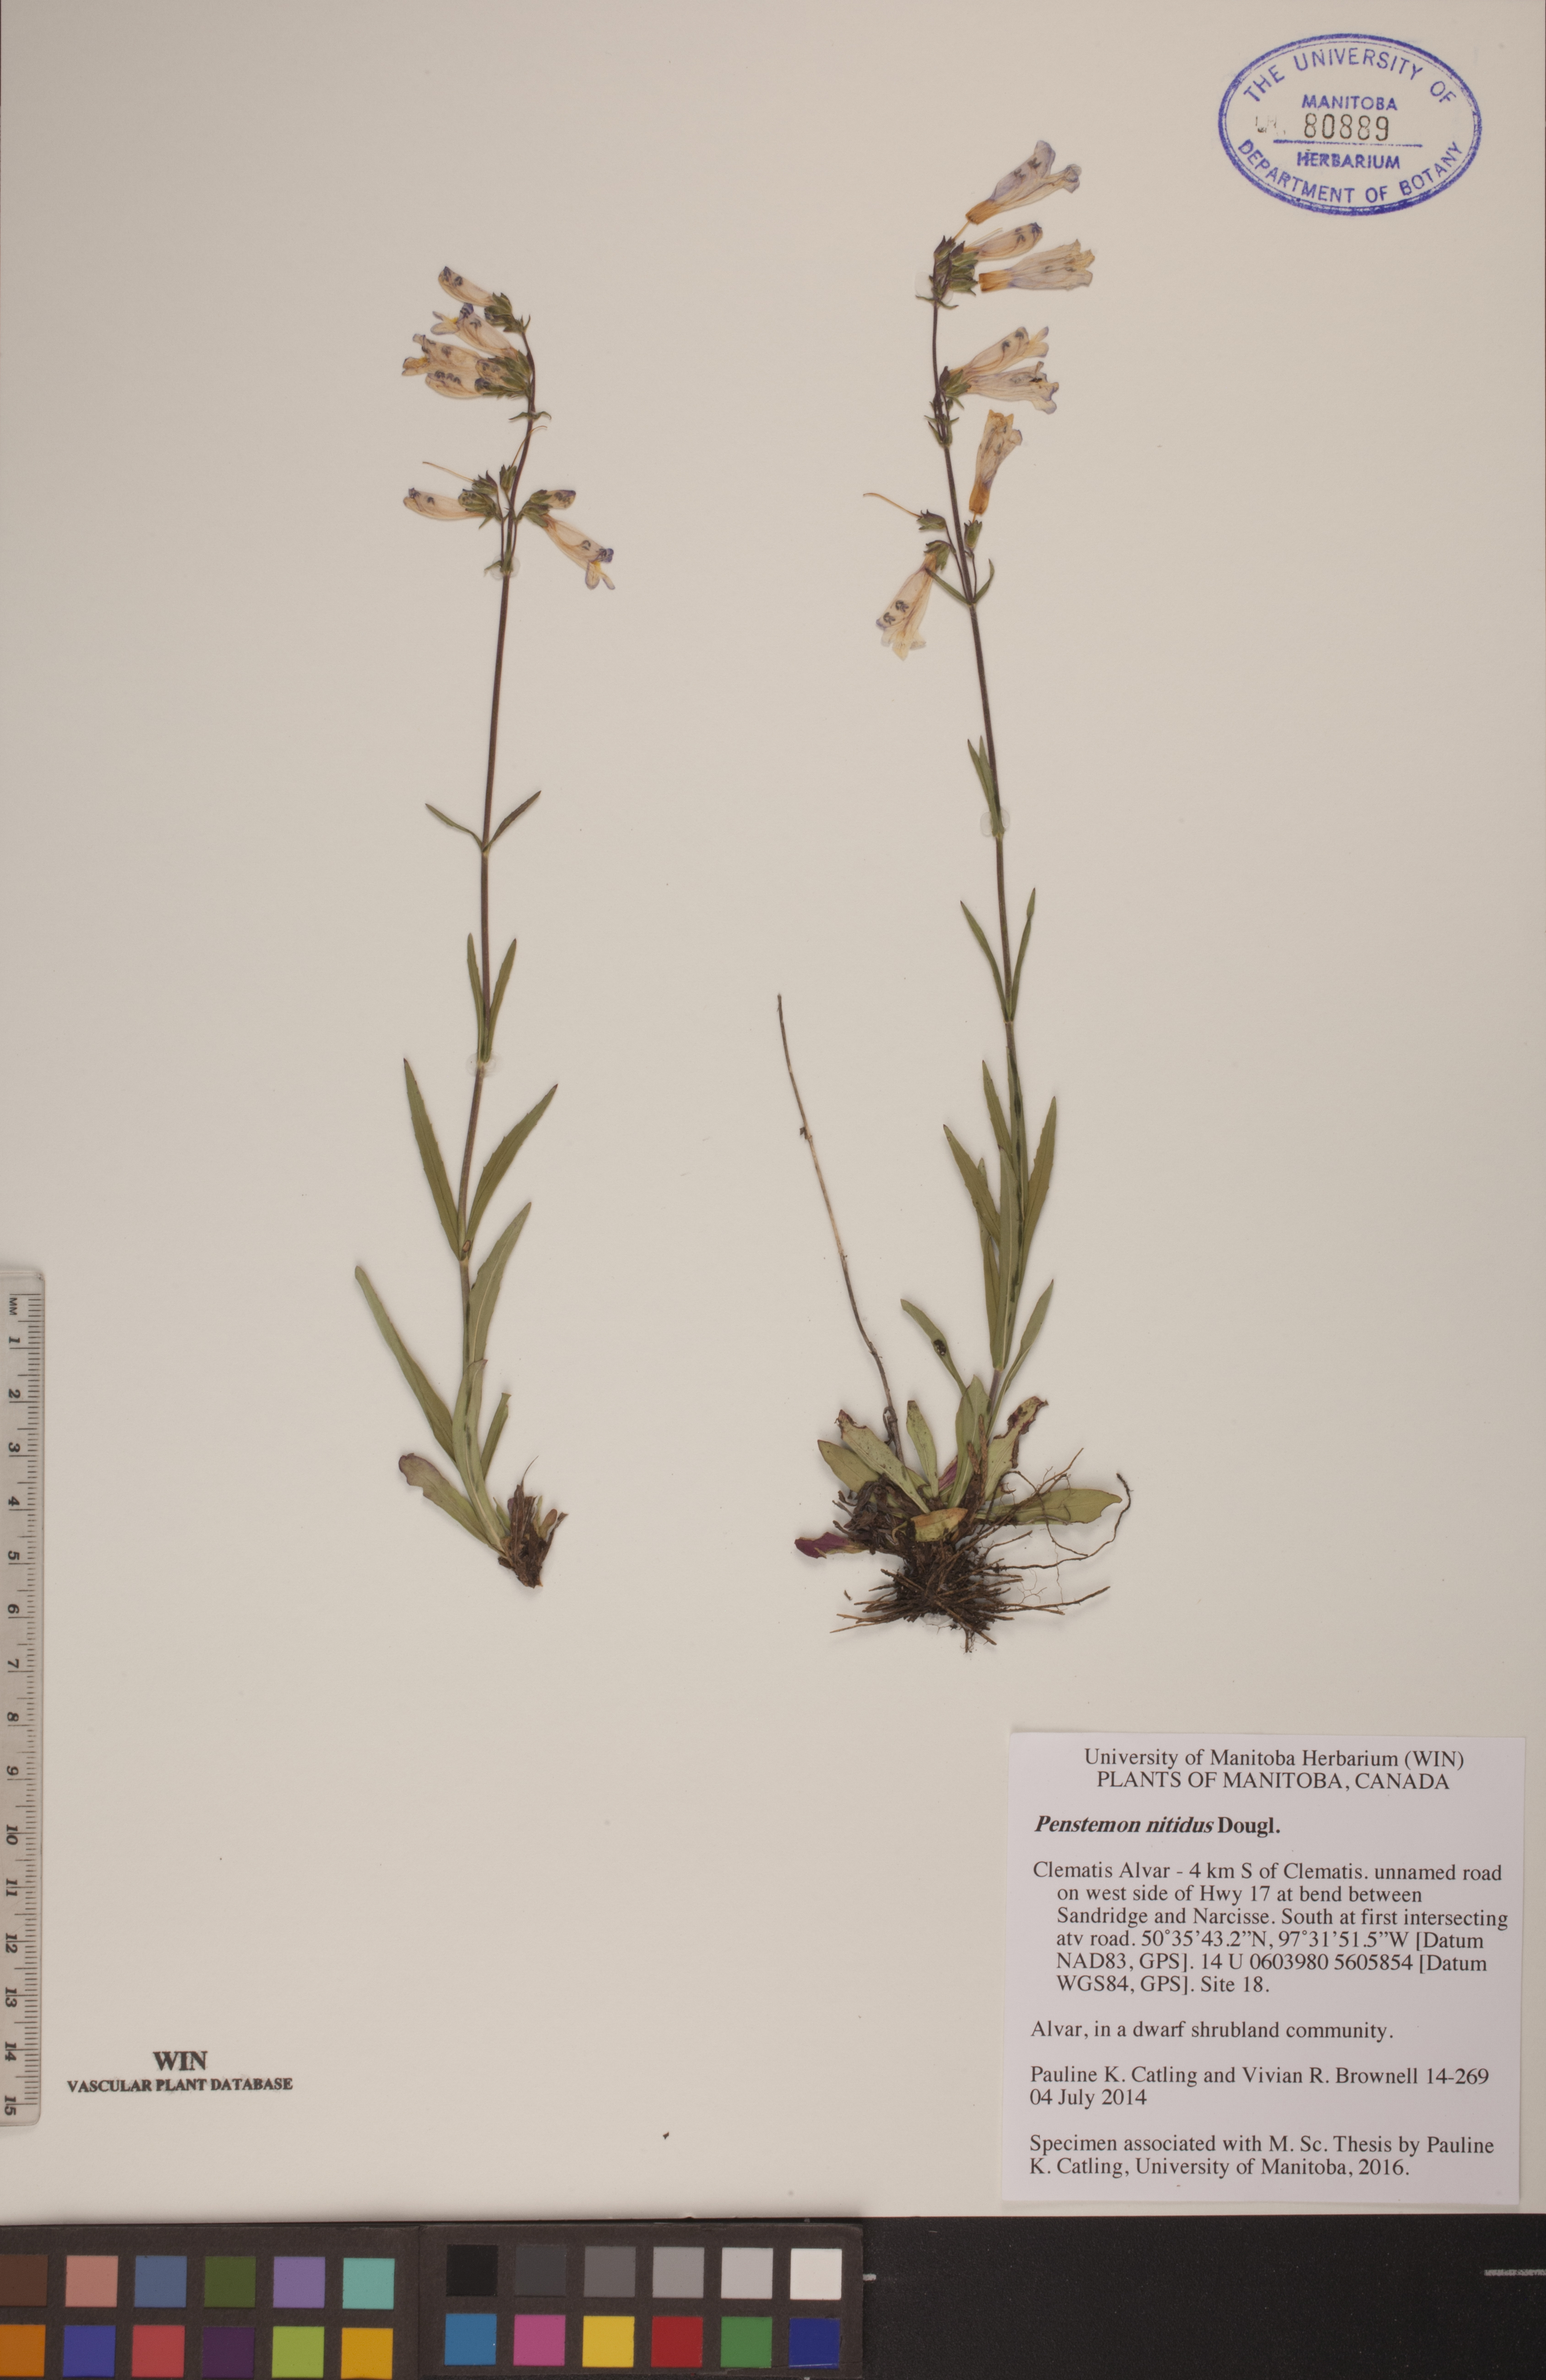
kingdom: Plantae
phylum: Tracheophyta
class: Magnoliopsida
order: Lamiales
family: Plantaginaceae
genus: Penstemon
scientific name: Penstemon nitidus
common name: Shining penstemon
